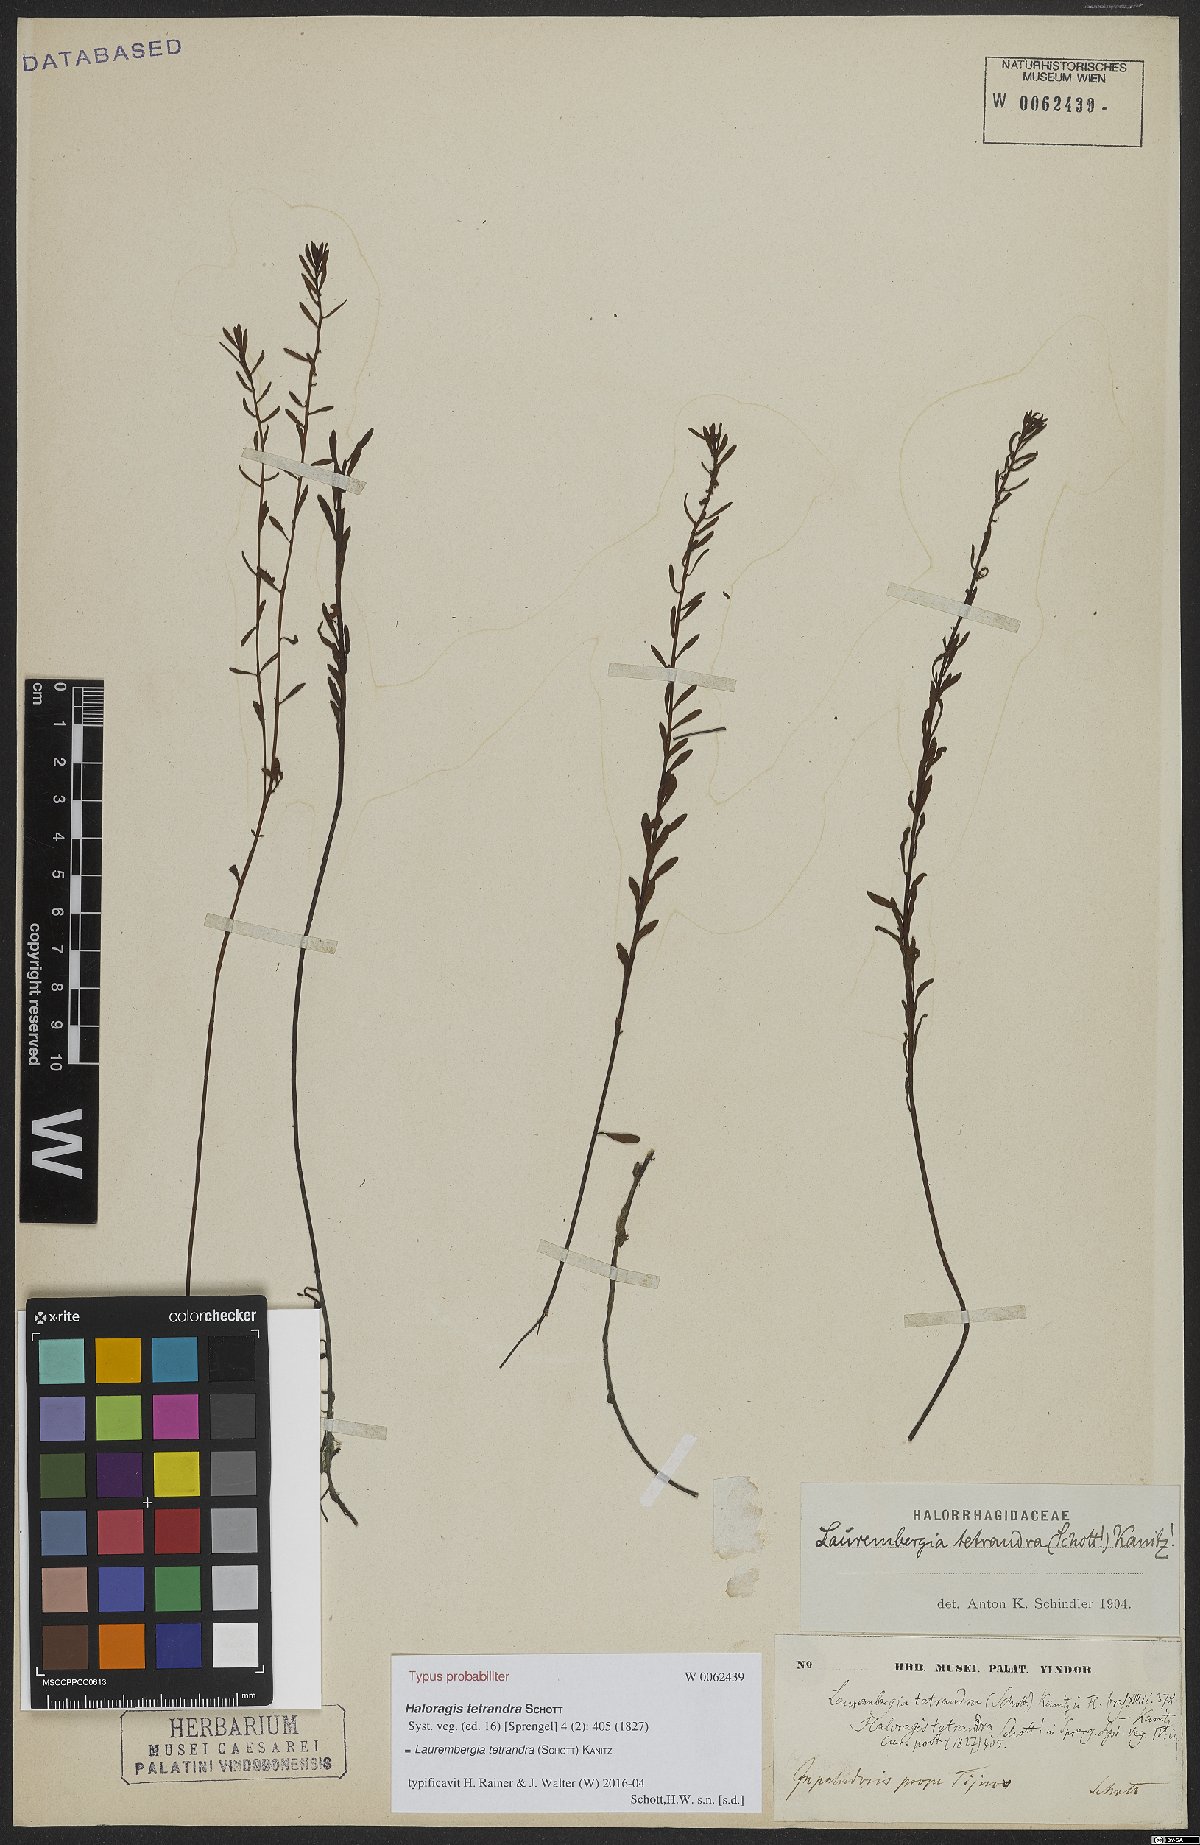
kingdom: Plantae
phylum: Tracheophyta
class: Magnoliopsida
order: Saxifragales
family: Haloragaceae
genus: Laurembergia
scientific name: Laurembergia tetrandra
